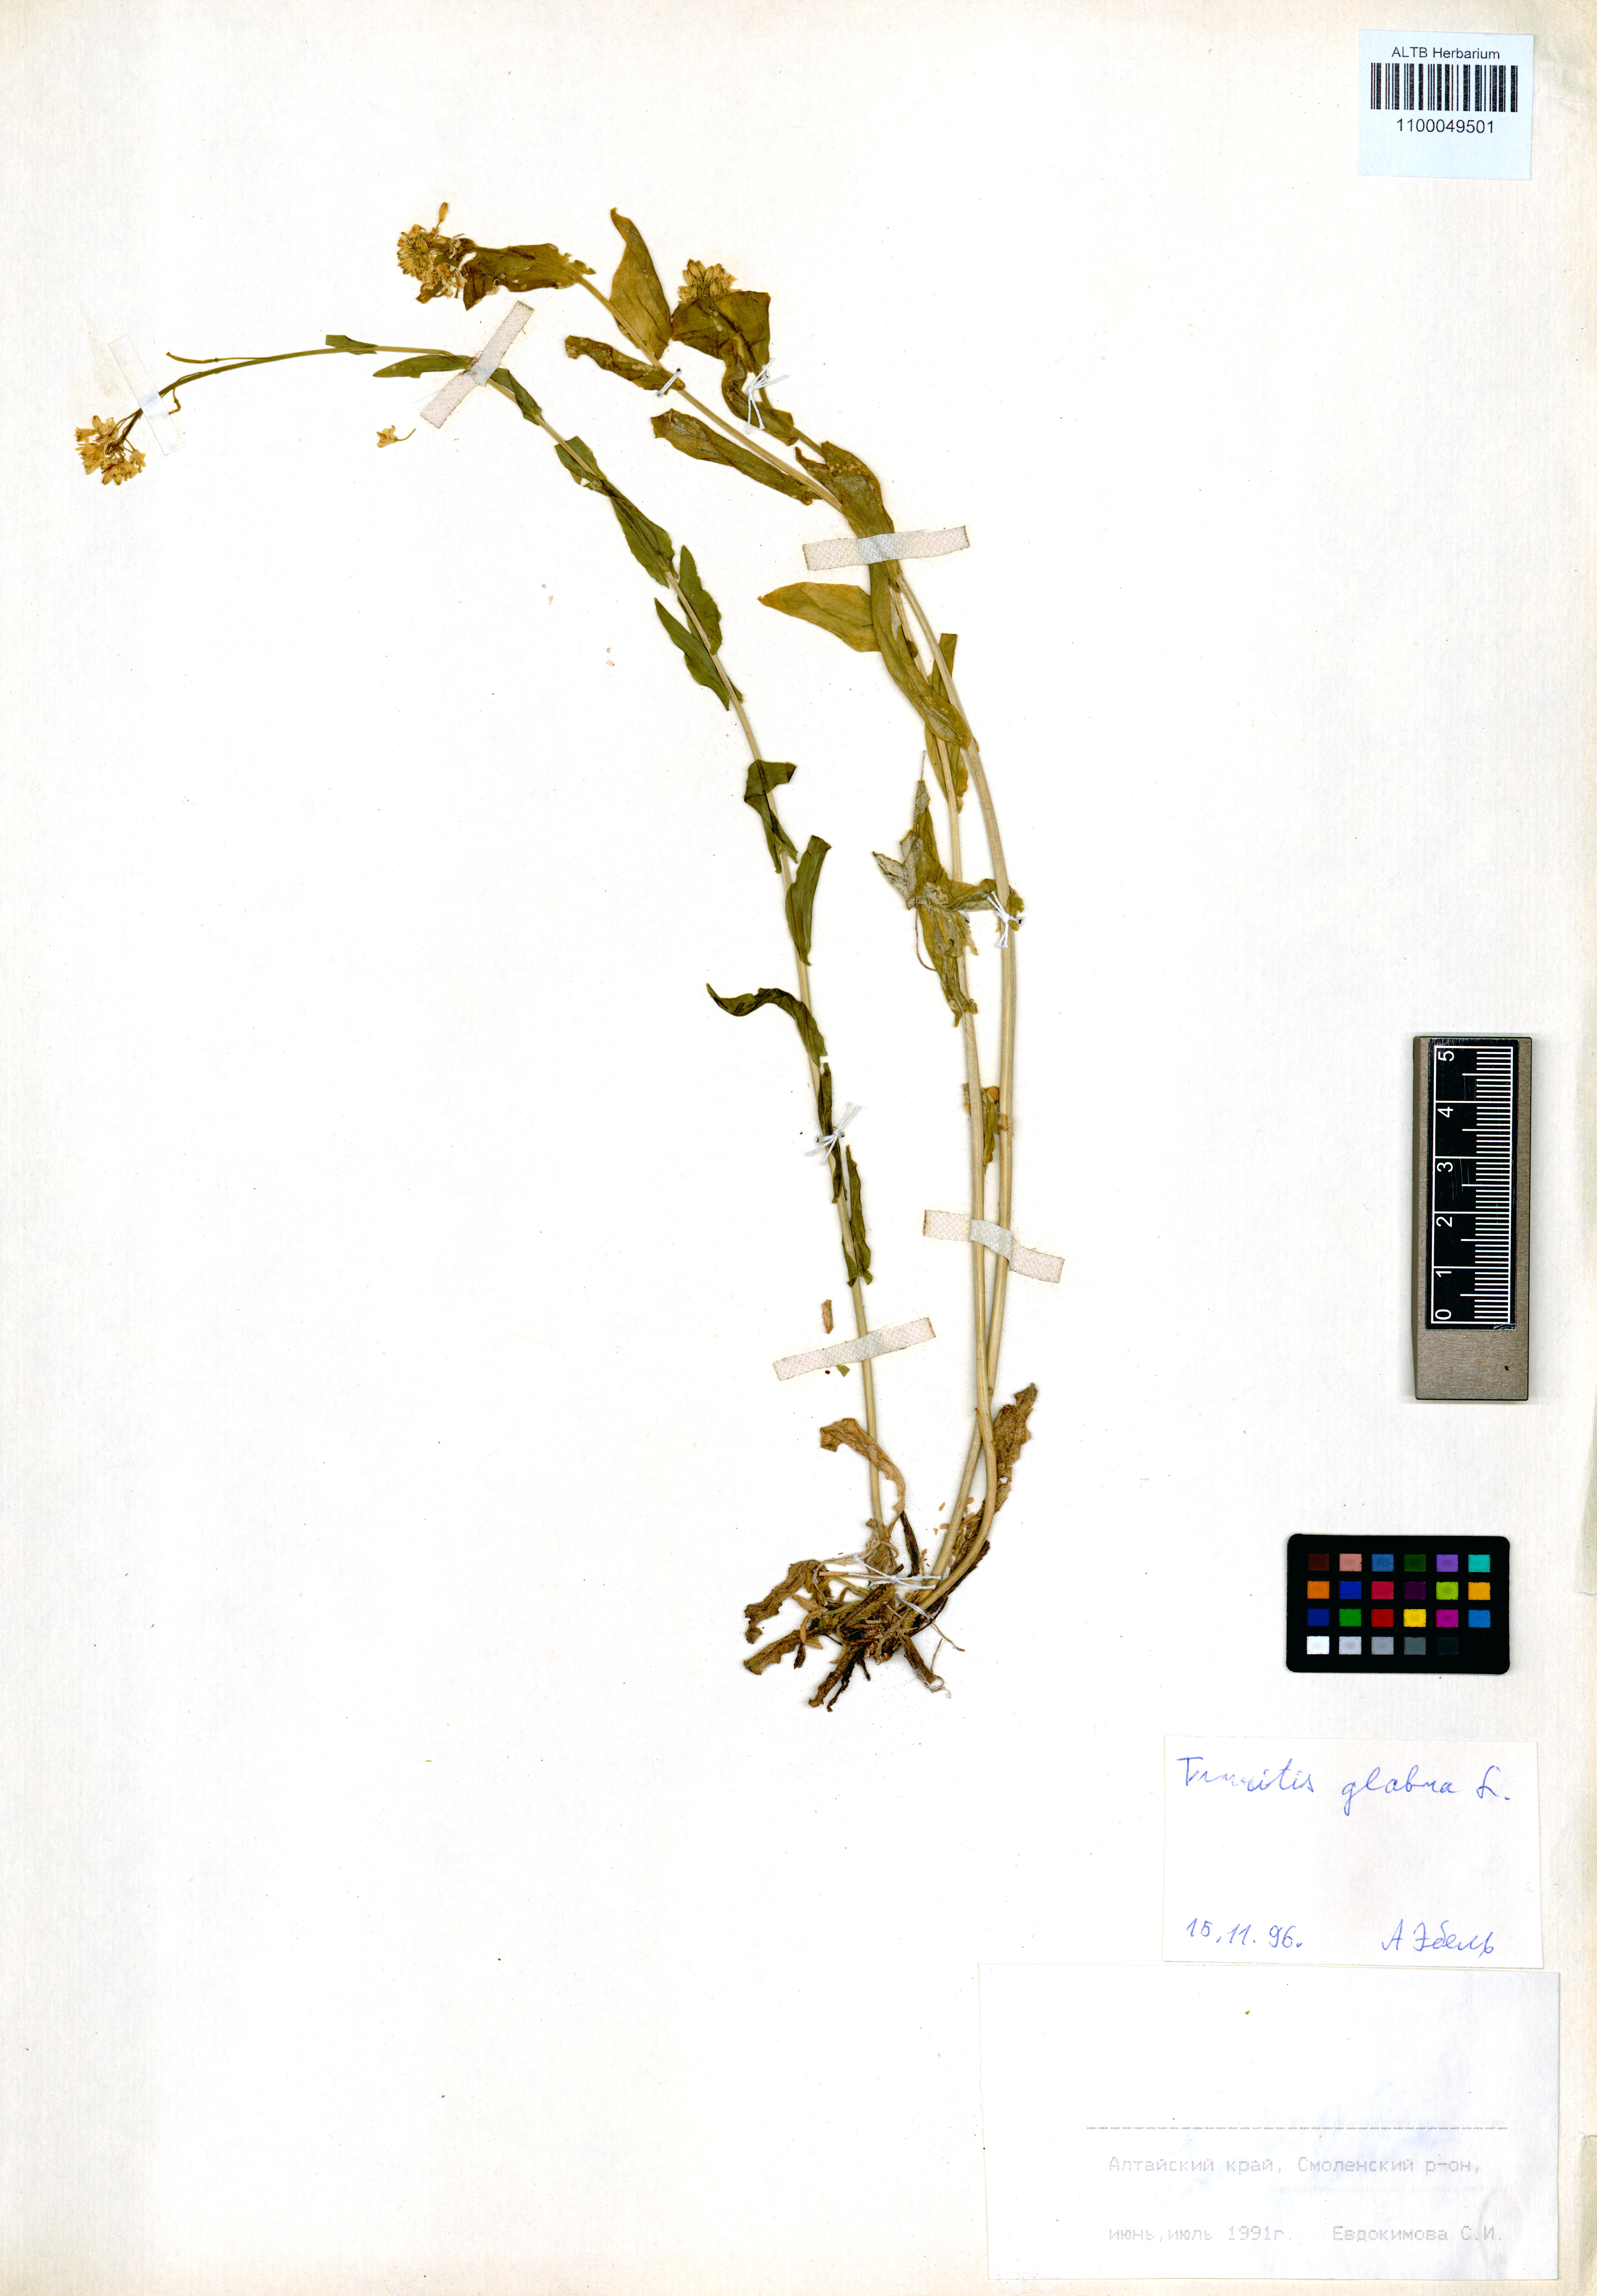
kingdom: Plantae
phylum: Tracheophyta
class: Magnoliopsida
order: Brassicales
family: Brassicaceae
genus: Turritis
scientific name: Turritis glabra
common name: Tower rockcress
